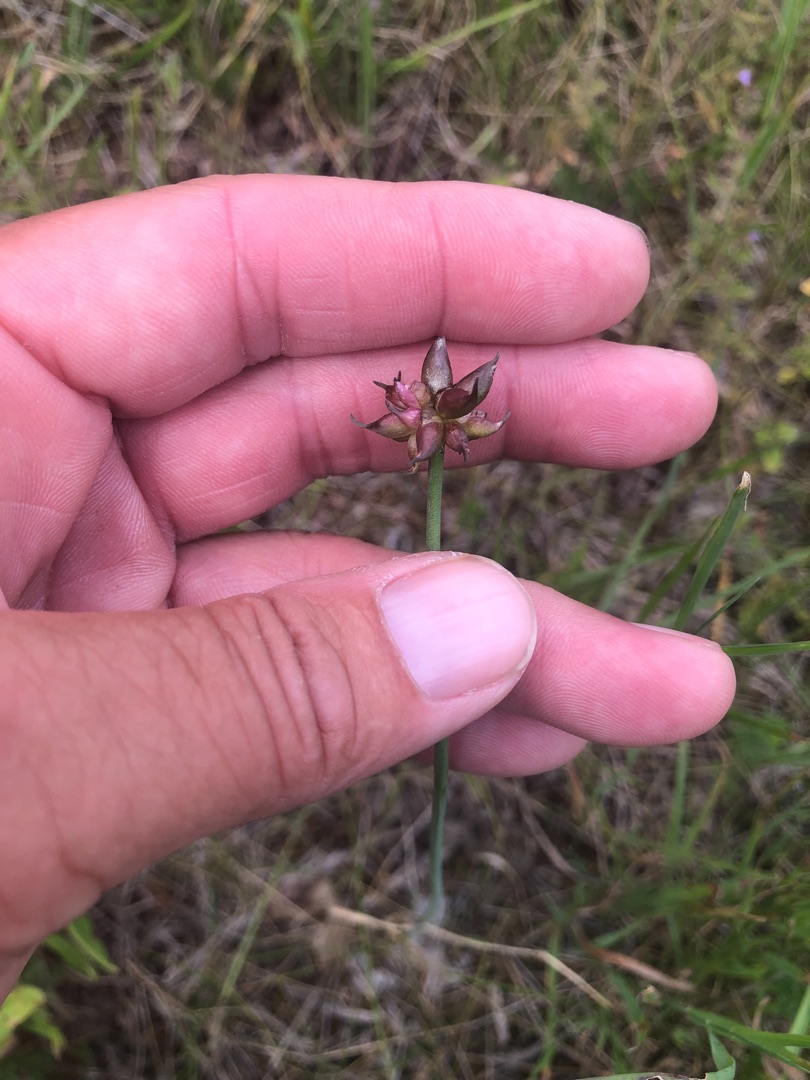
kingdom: Plantae
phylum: Tracheophyta
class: Liliopsida
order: Asparagales
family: Amaryllidaceae
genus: Allium
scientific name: Allium oleraceum
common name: Vild løg
